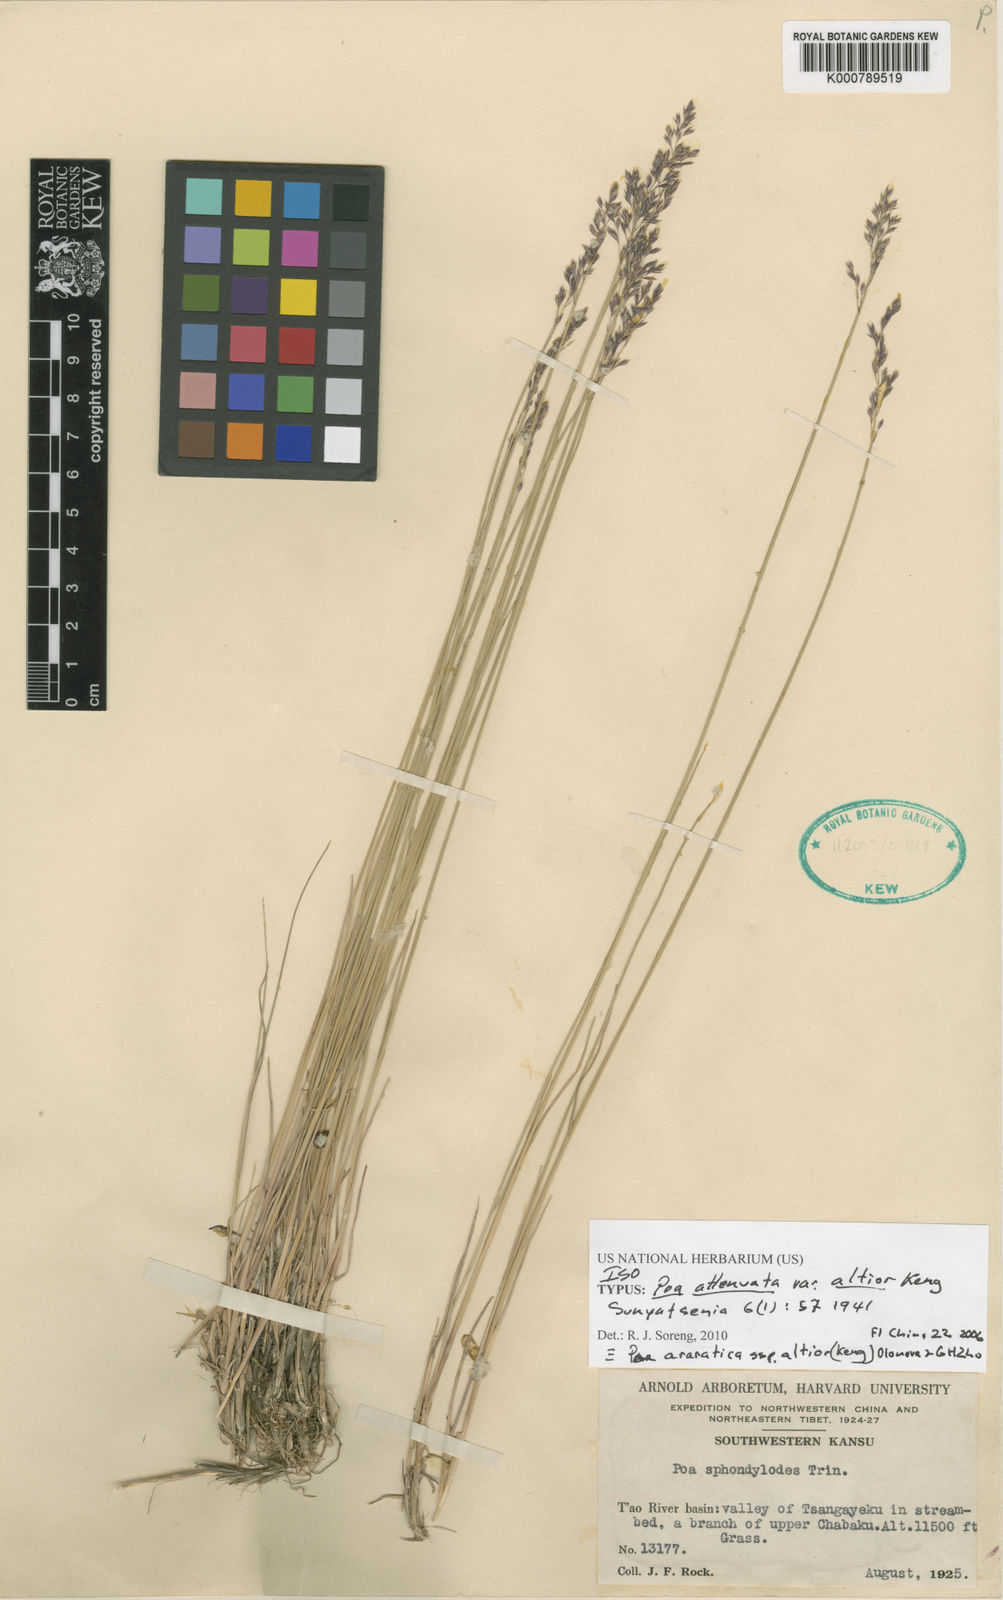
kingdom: Plantae
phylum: Tracheophyta
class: Liliopsida
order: Poales
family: Poaceae
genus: Poa
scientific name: Poa araratica
